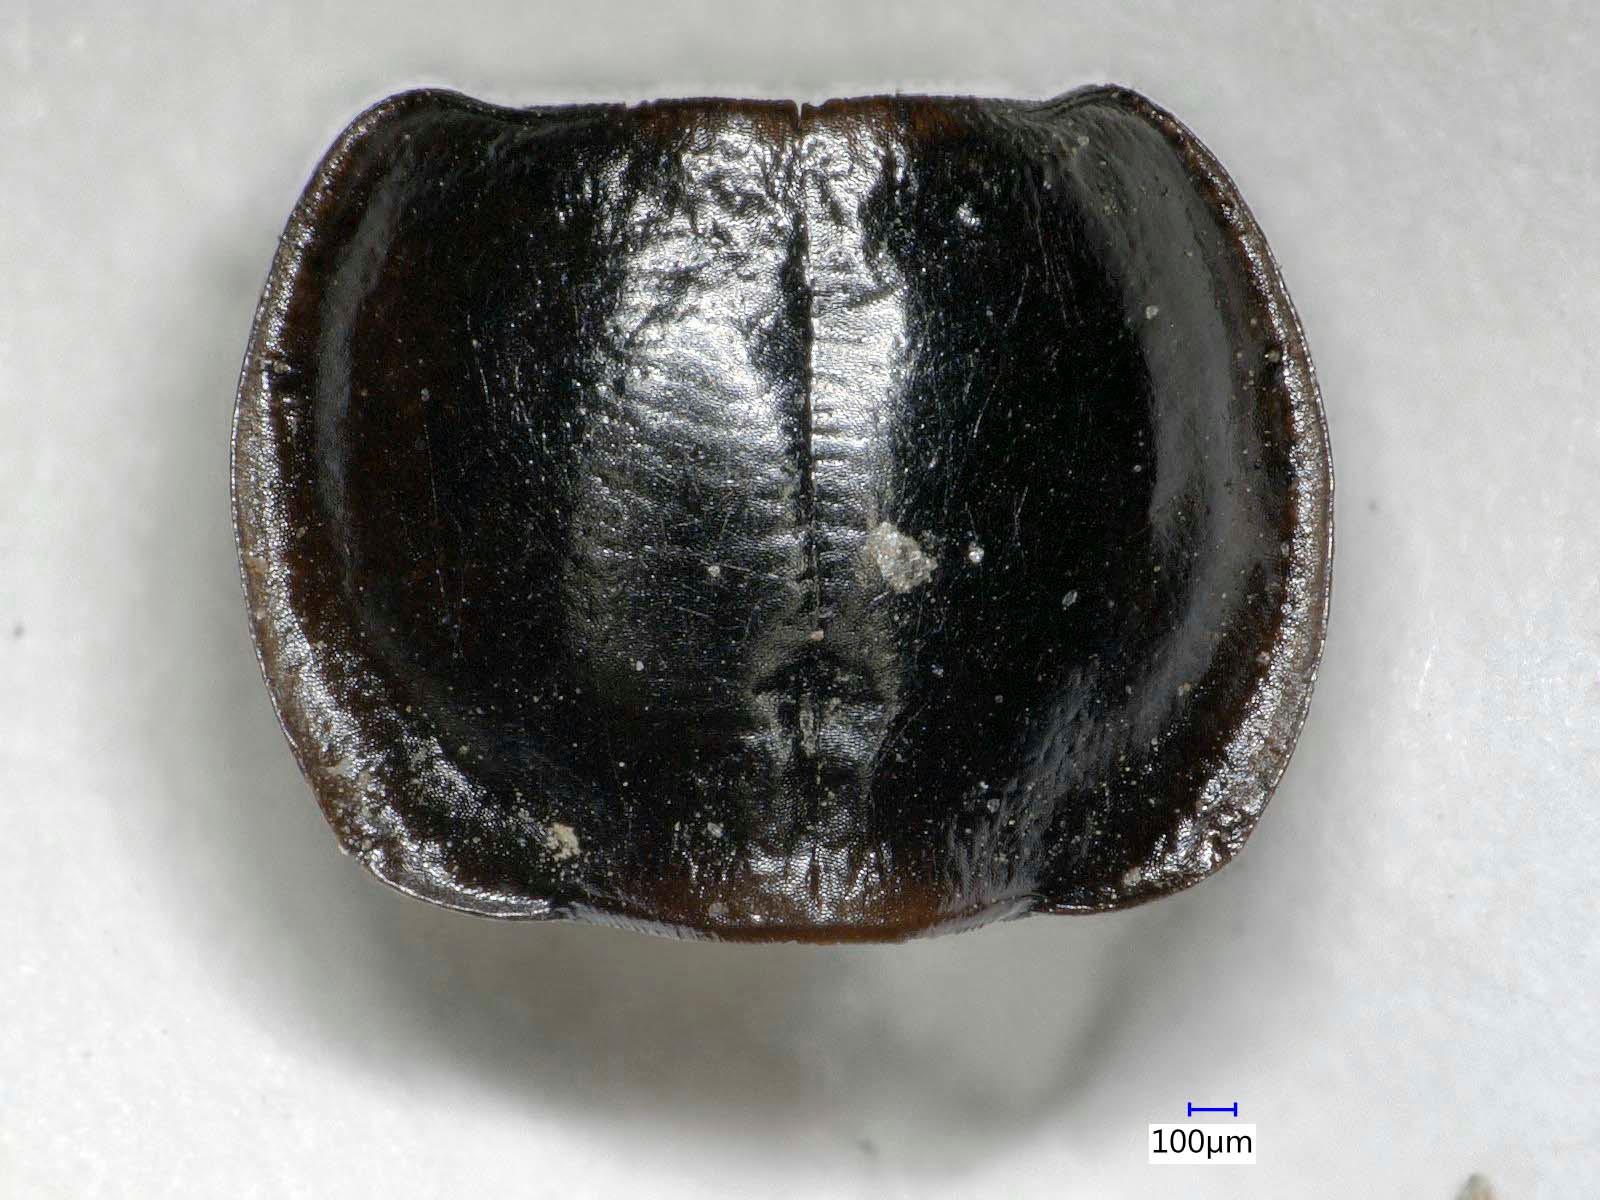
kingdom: Animalia
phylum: Arthropoda
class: Insecta
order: Coleoptera
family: Carabidae
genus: Tanystoma
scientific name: Tanystoma maculicolle
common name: Tule beetle
